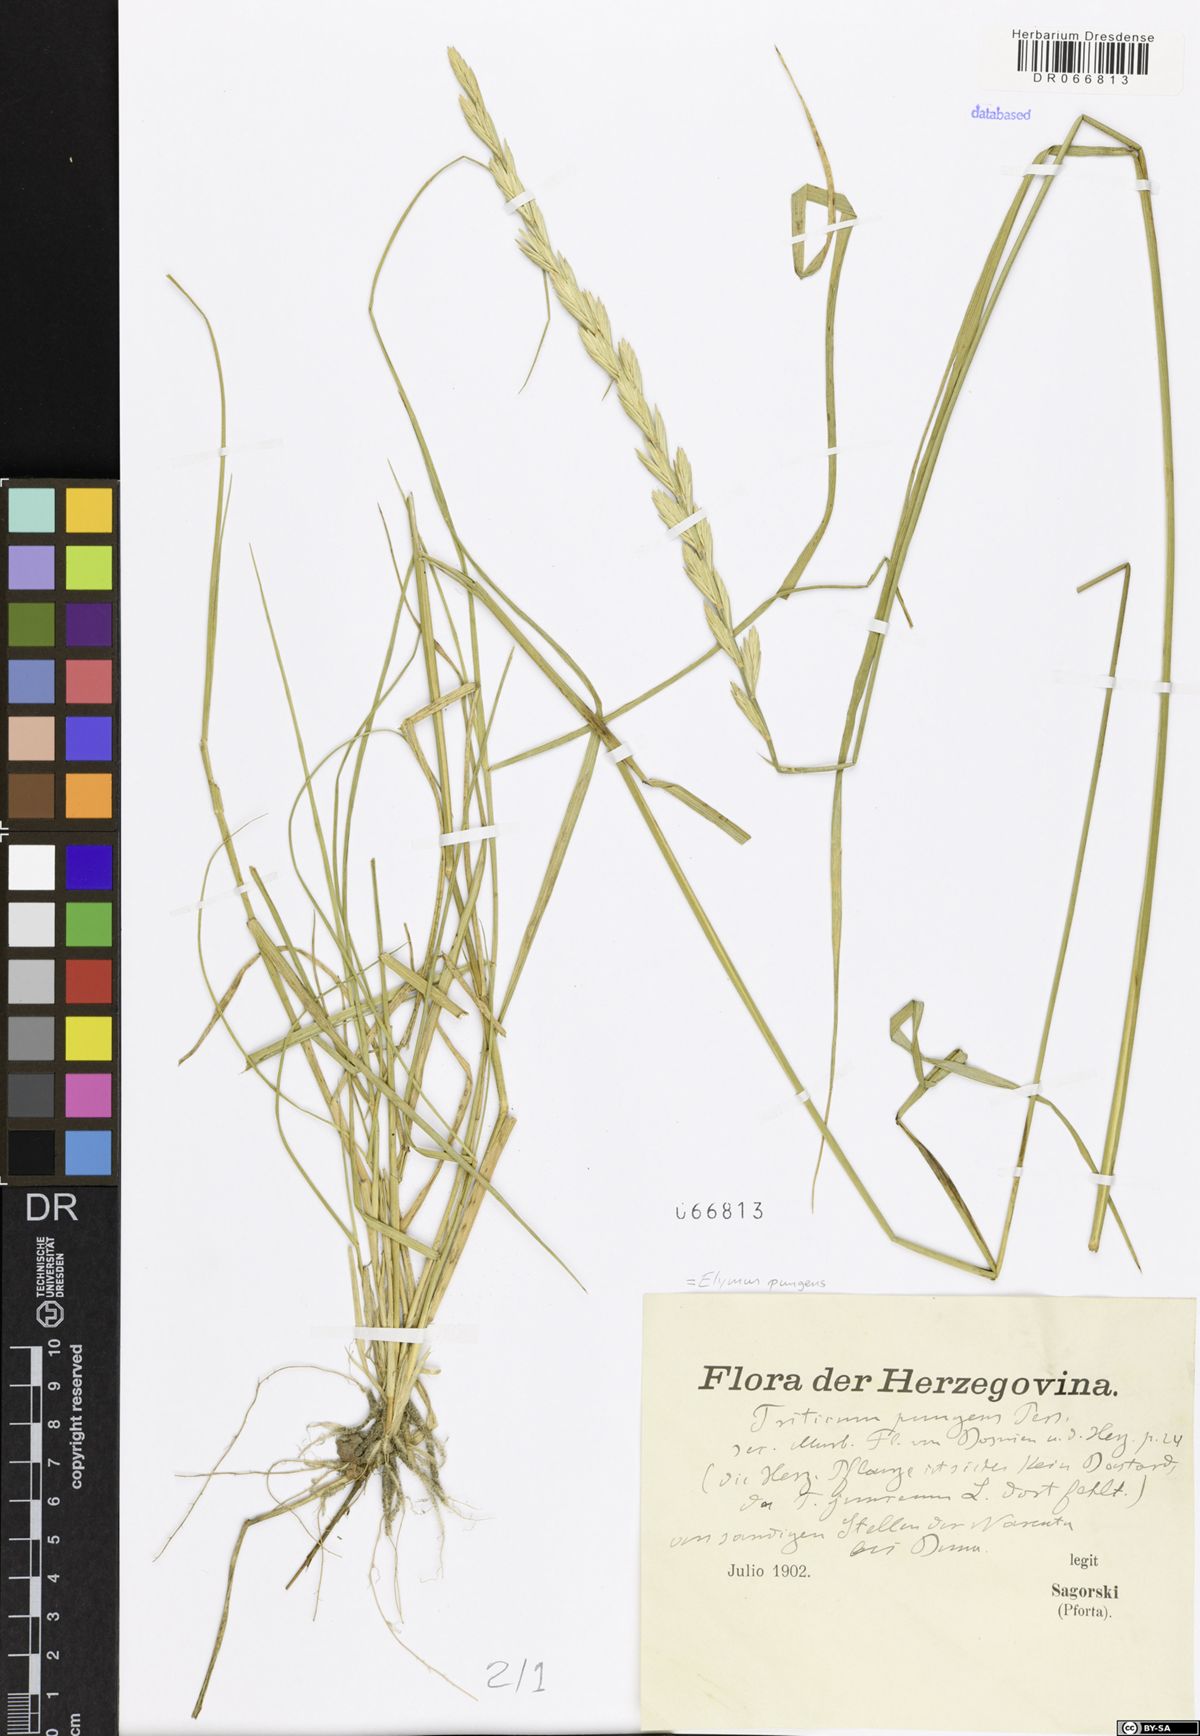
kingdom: Plantae
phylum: Tracheophyta
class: Liliopsida
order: Poales
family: Poaceae
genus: Elymus
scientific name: Elymus pungens
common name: Sea couch
